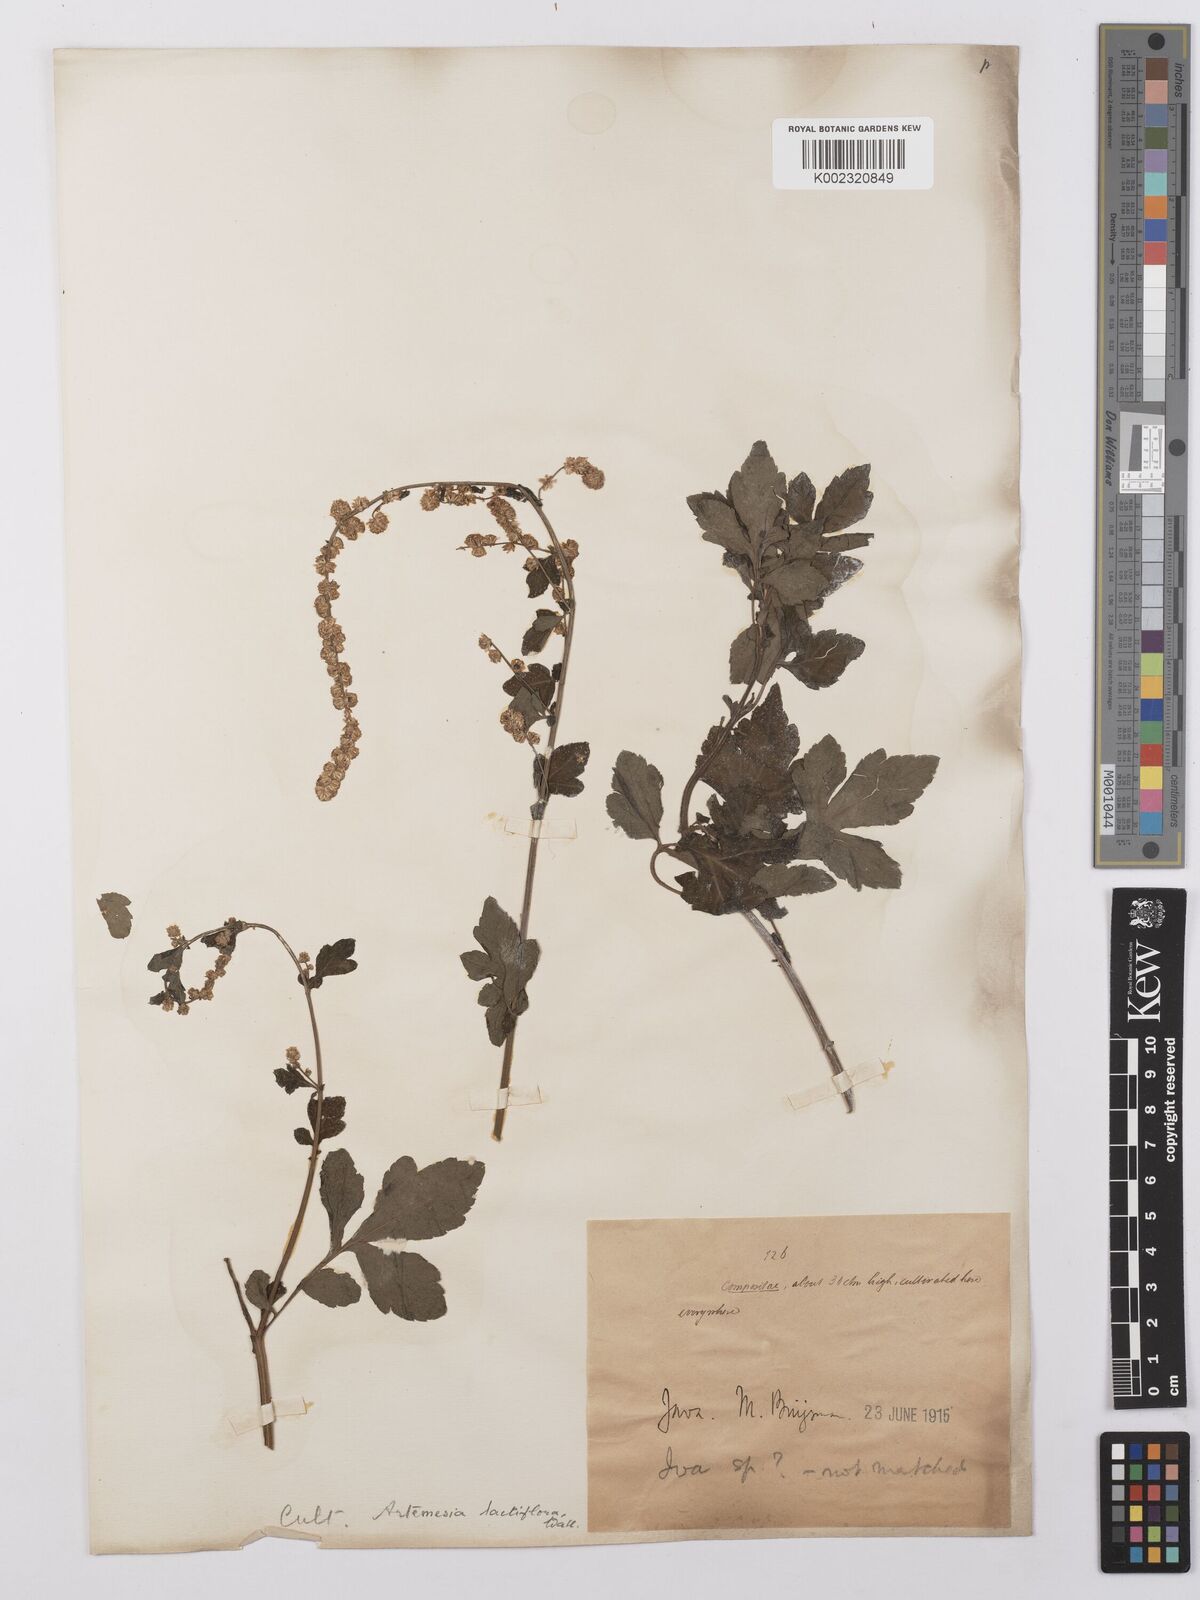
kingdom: Plantae
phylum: Tracheophyta
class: Magnoliopsida
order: Asterales
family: Asteraceae
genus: Artemisia
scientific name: Artemisia lactiflora
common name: White mugwort
